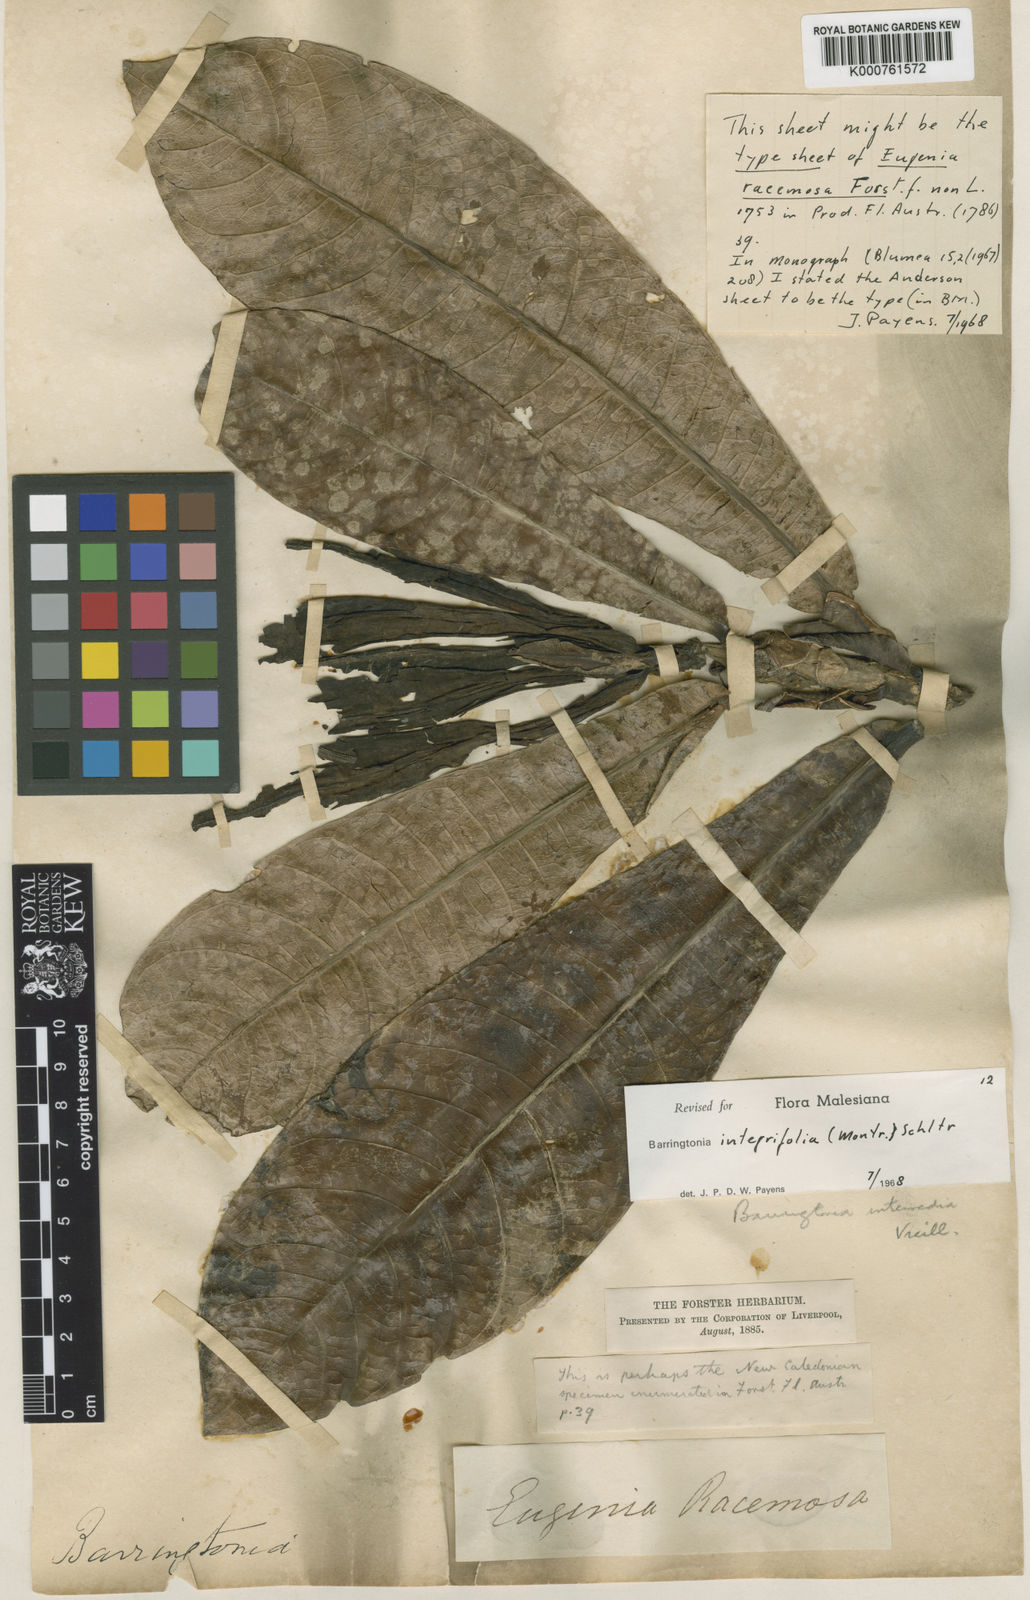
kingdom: Plantae
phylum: Tracheophyta
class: Magnoliopsida
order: Ericales
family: Lecythidaceae
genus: Barringtonia
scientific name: Barringtonia integrifolia
